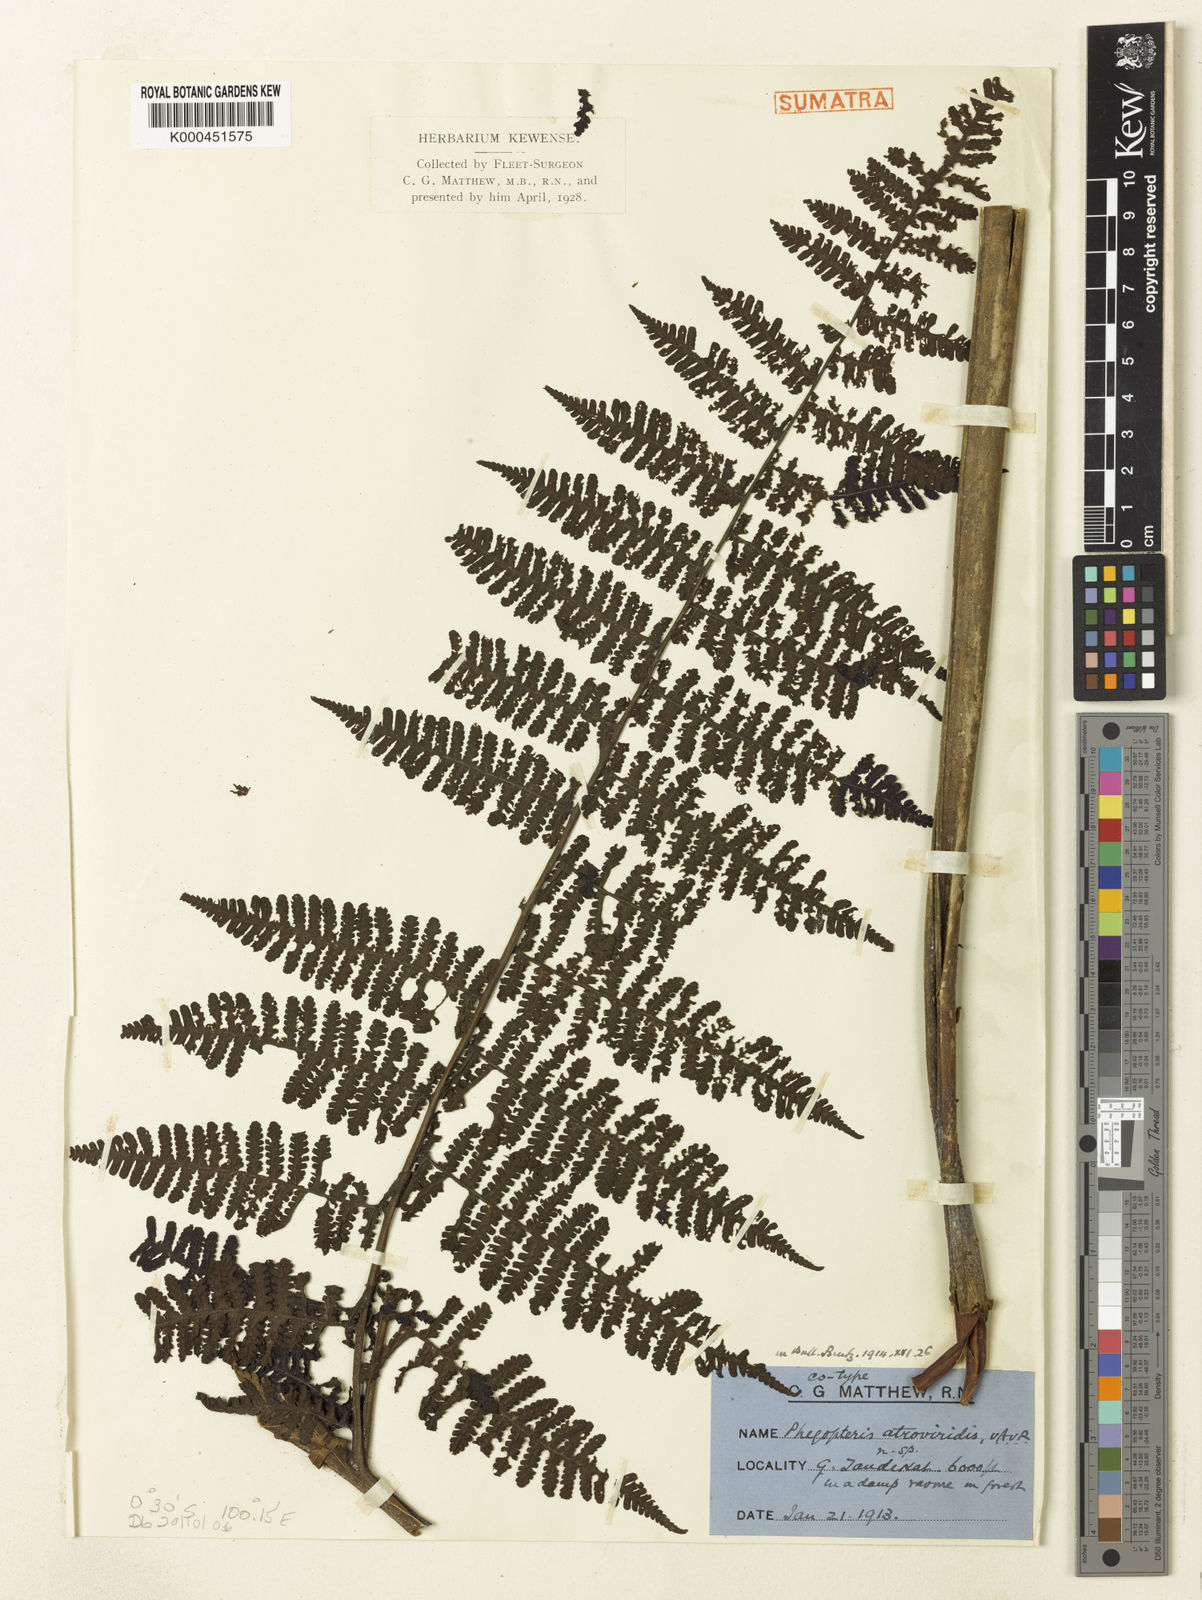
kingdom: Plantae
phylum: Tracheophyta
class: Polypodiopsida
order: Polypodiales
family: Athyriaceae
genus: Cornopteris
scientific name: Cornopteris atroviridis
